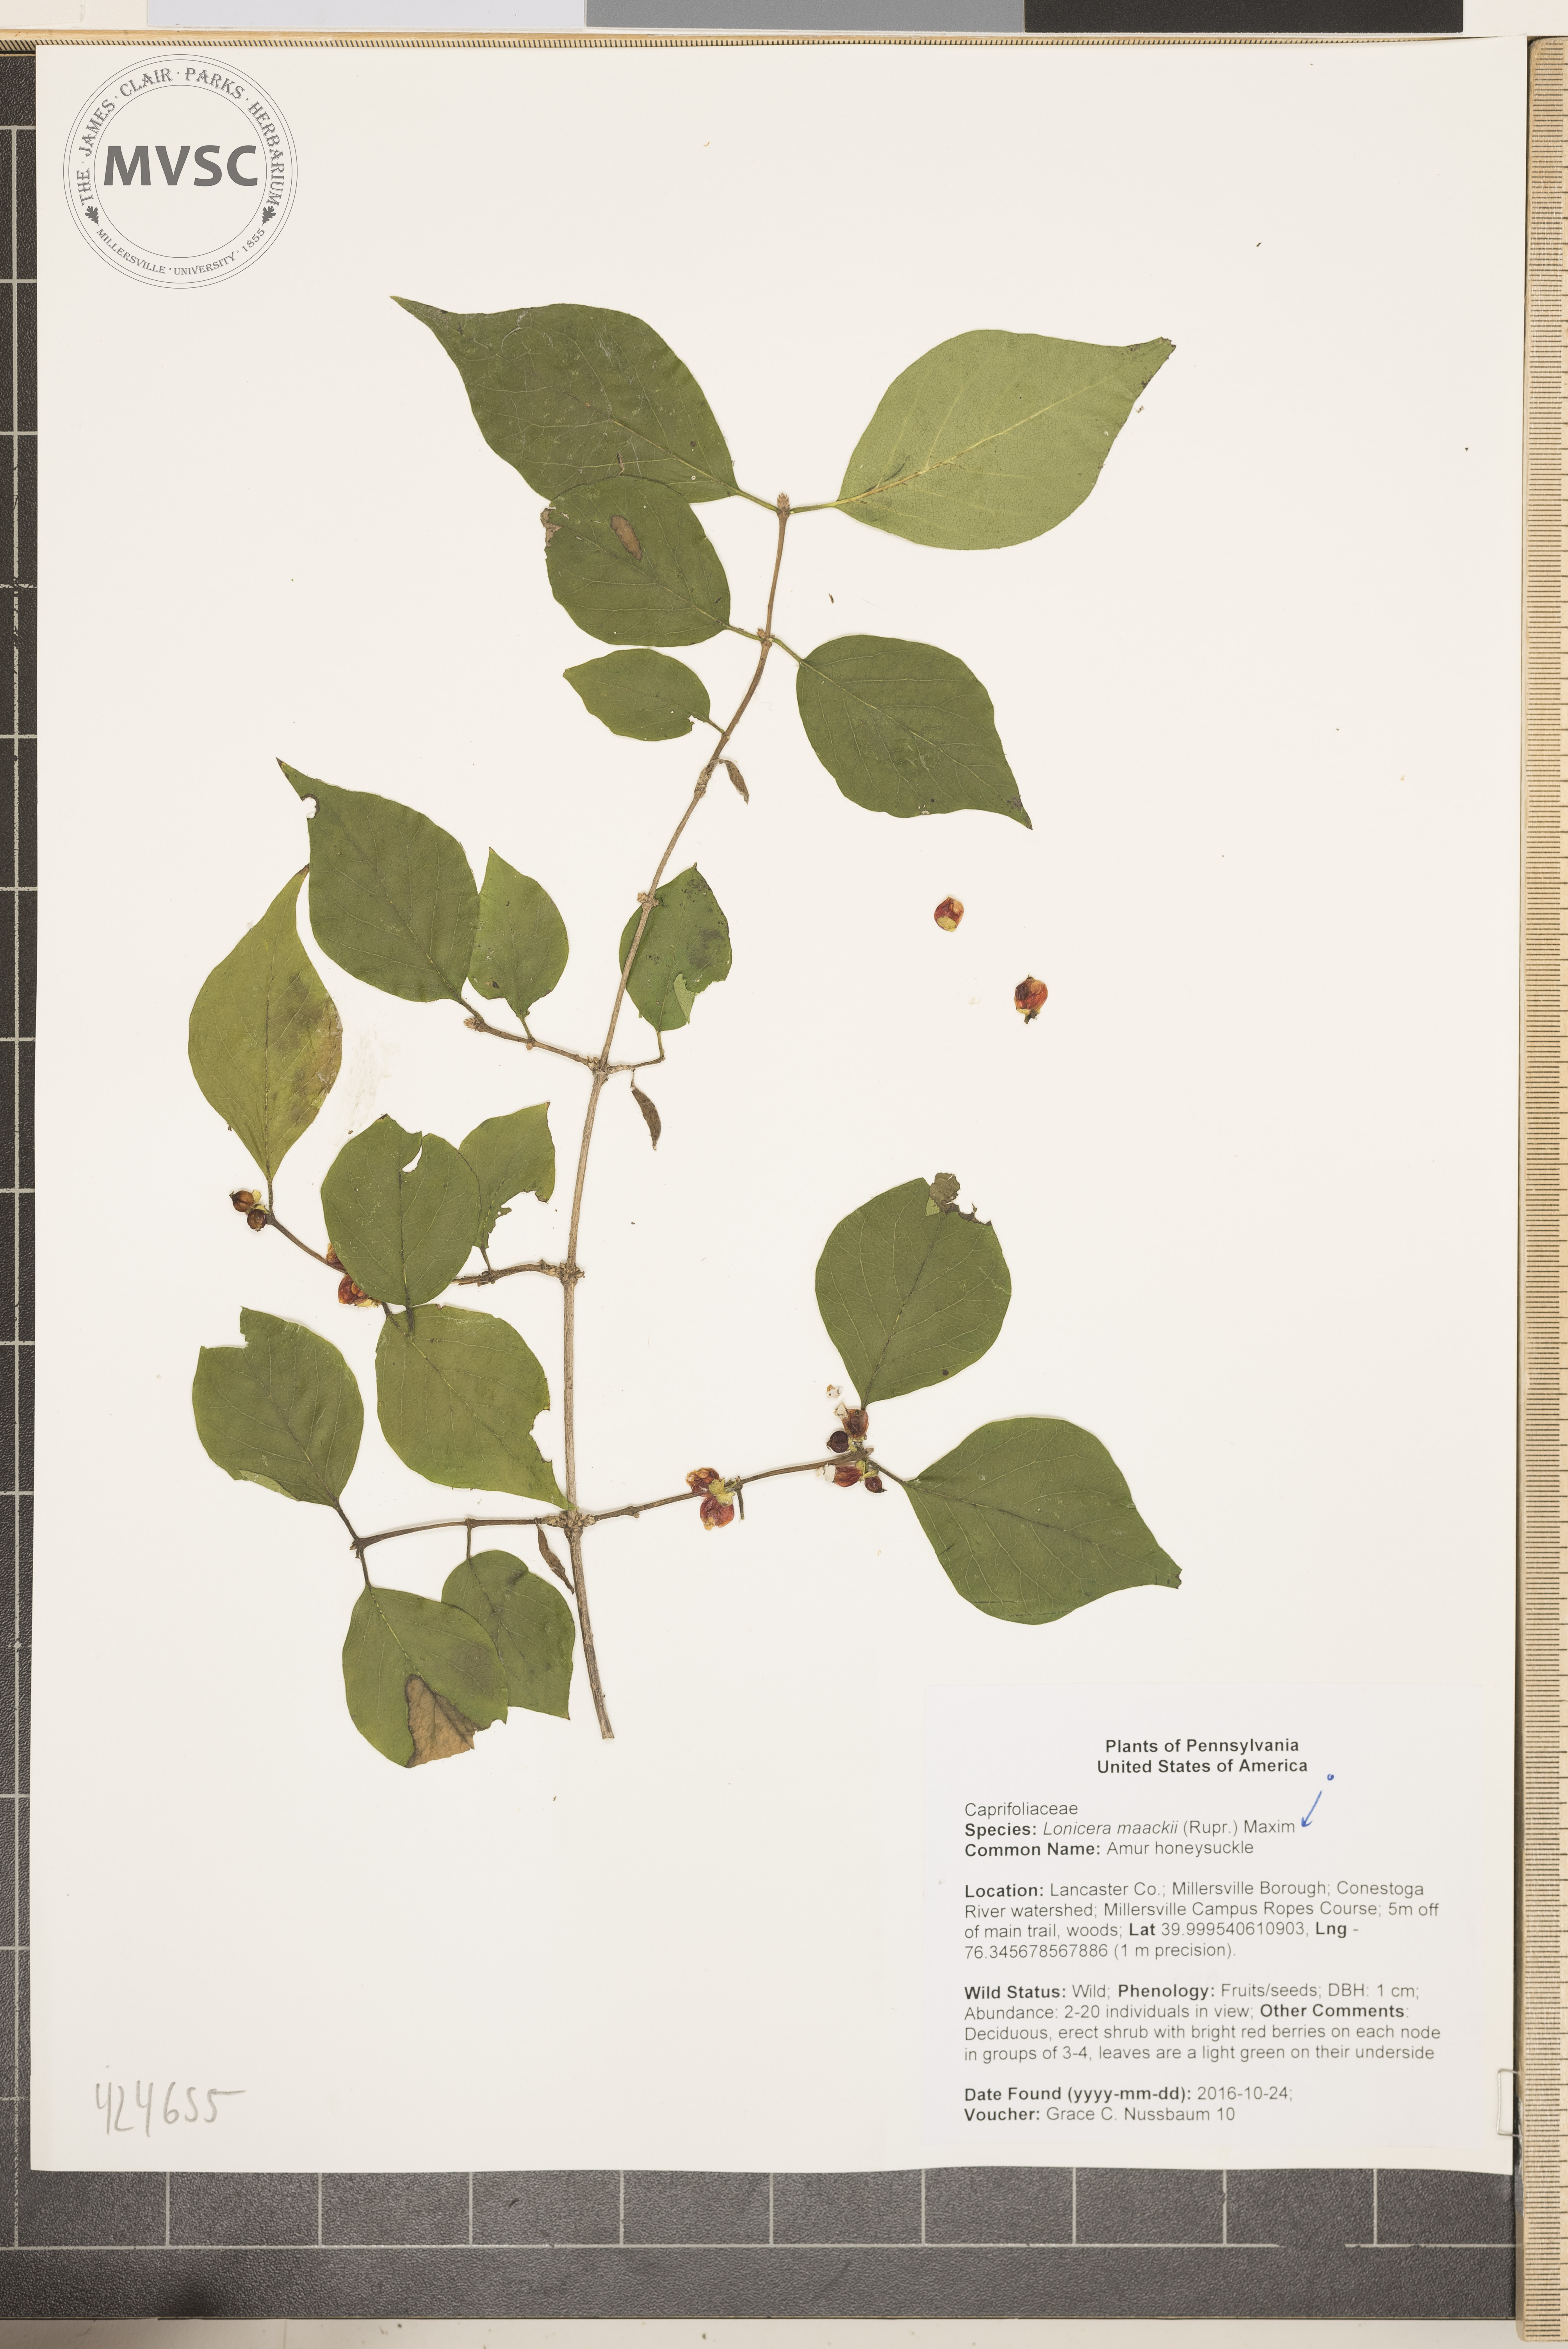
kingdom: Plantae
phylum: Tracheophyta
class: Magnoliopsida
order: Dipsacales
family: Caprifoliaceae
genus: Lonicera
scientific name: Lonicera maackii
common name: Amur honeysuckle
